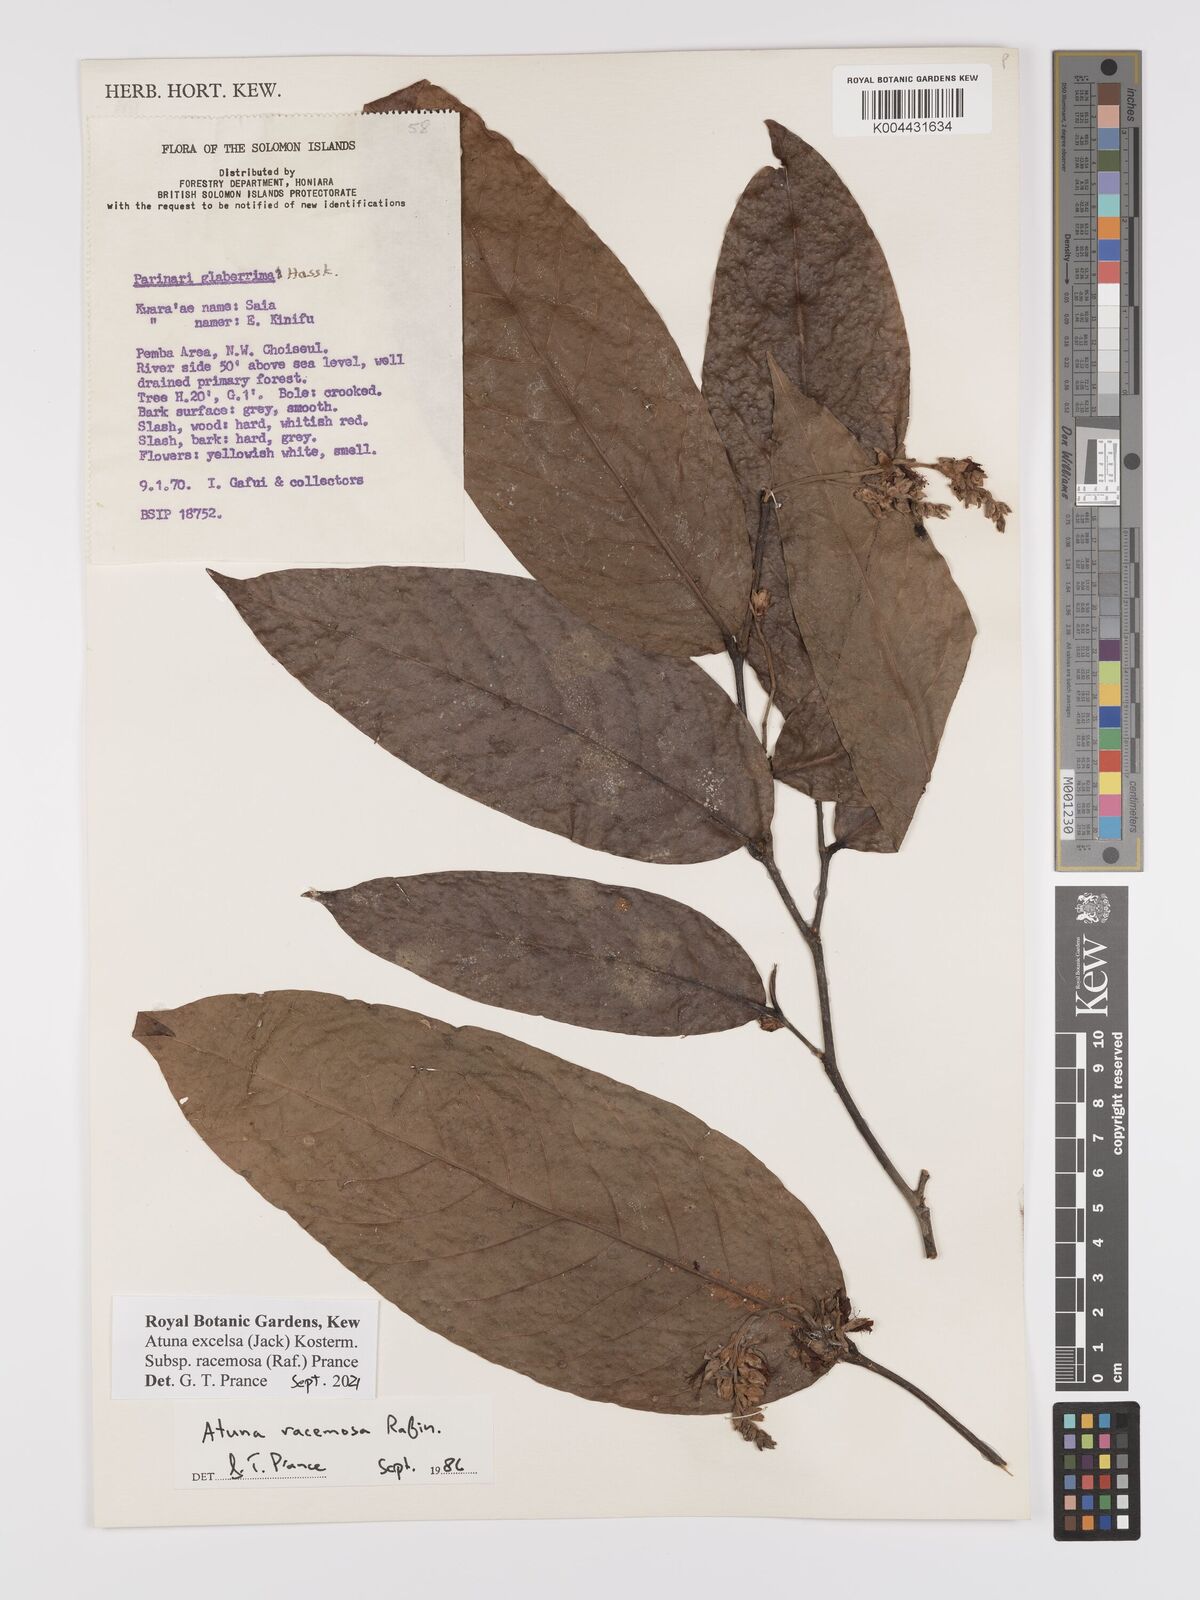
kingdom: Plantae
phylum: Tracheophyta
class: Magnoliopsida
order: Malpighiales
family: Chrysobalanaceae
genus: Atuna
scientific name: Atuna excelsa
